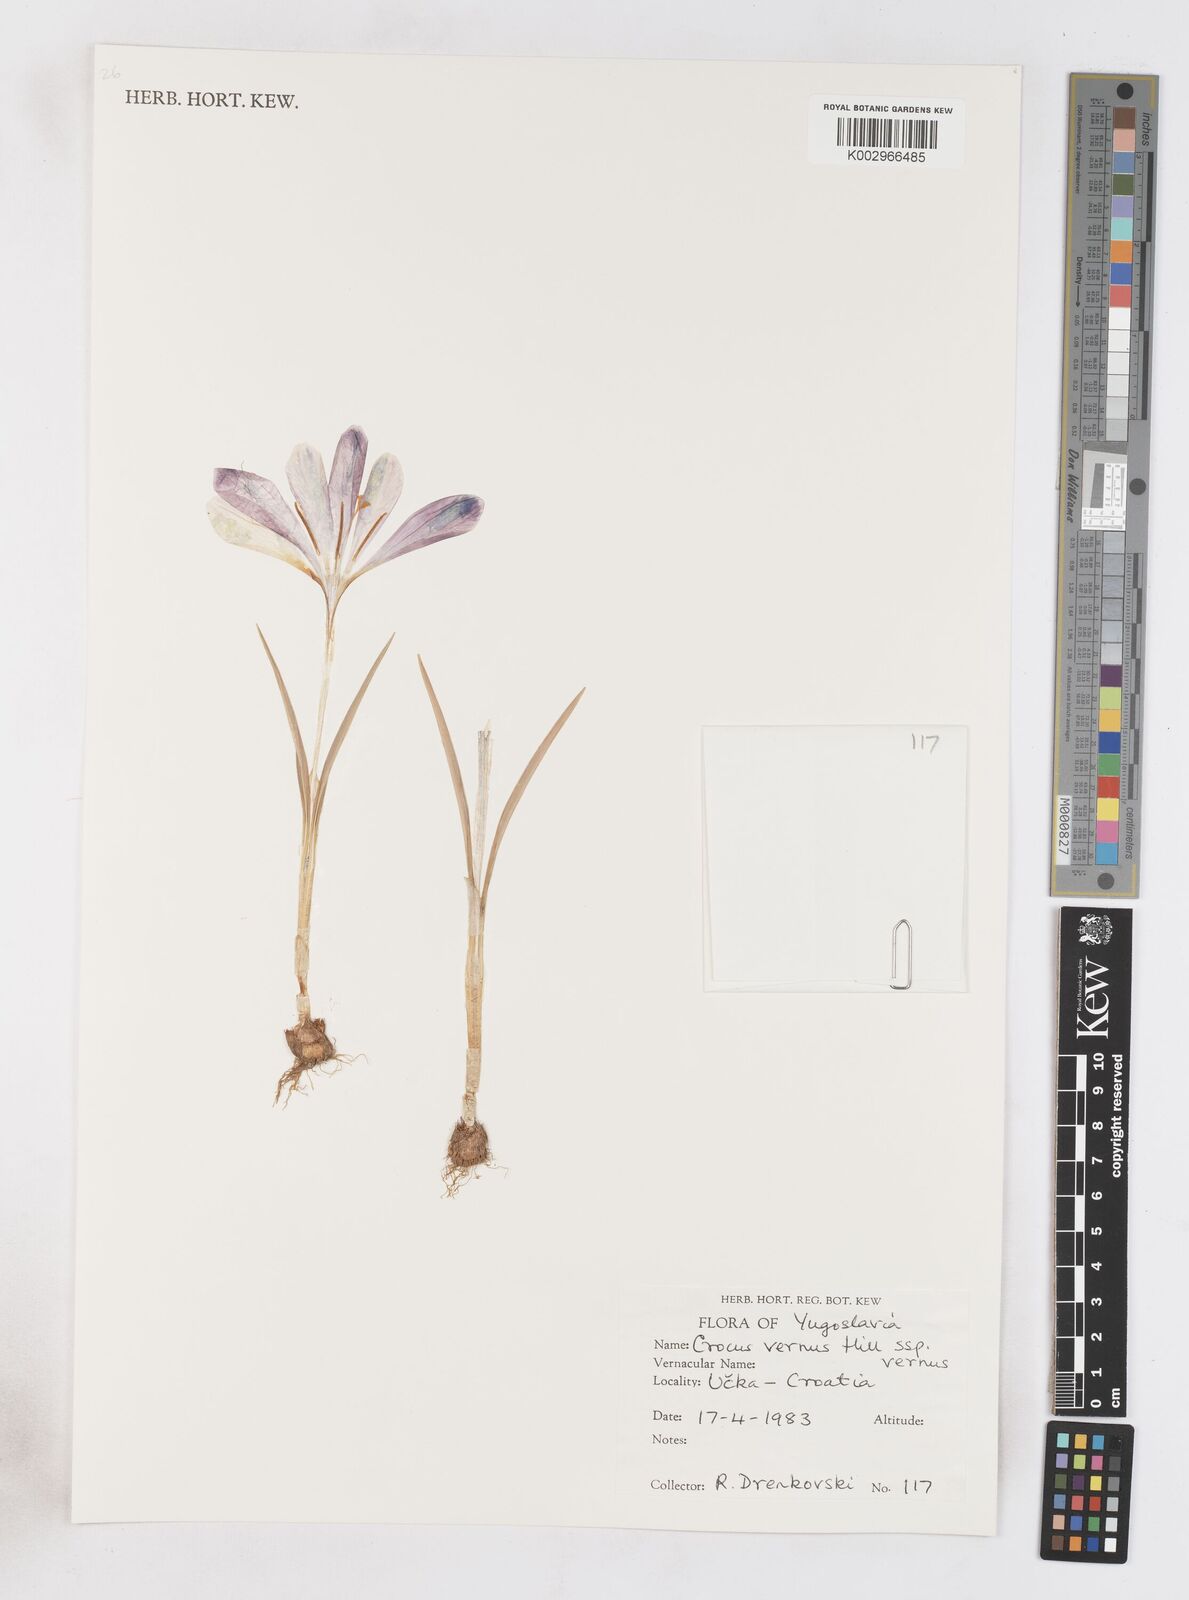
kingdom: Plantae
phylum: Tracheophyta
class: Liliopsida
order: Asparagales
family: Iridaceae
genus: Crocus
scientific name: Crocus vernus
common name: Spring crocus
